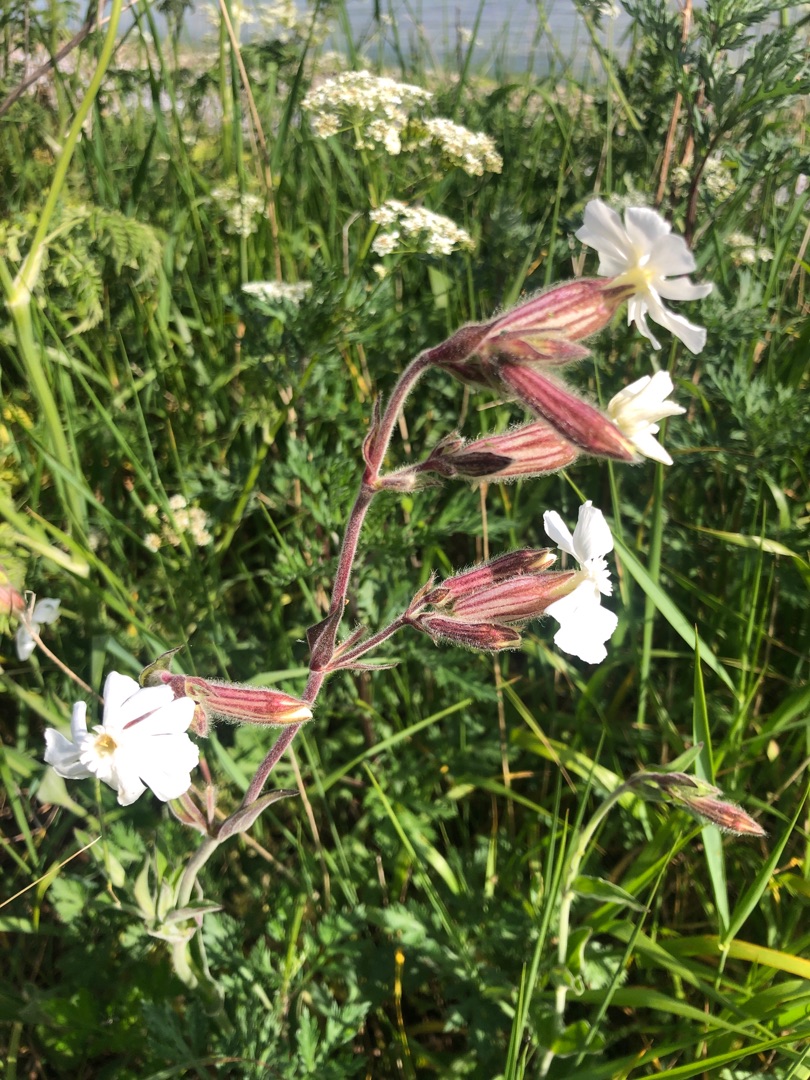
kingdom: Plantae
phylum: Tracheophyta
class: Magnoliopsida
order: Caryophyllales
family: Caryophyllaceae
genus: Silene
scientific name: Silene latifolia
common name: Aftenpragtstjerne
